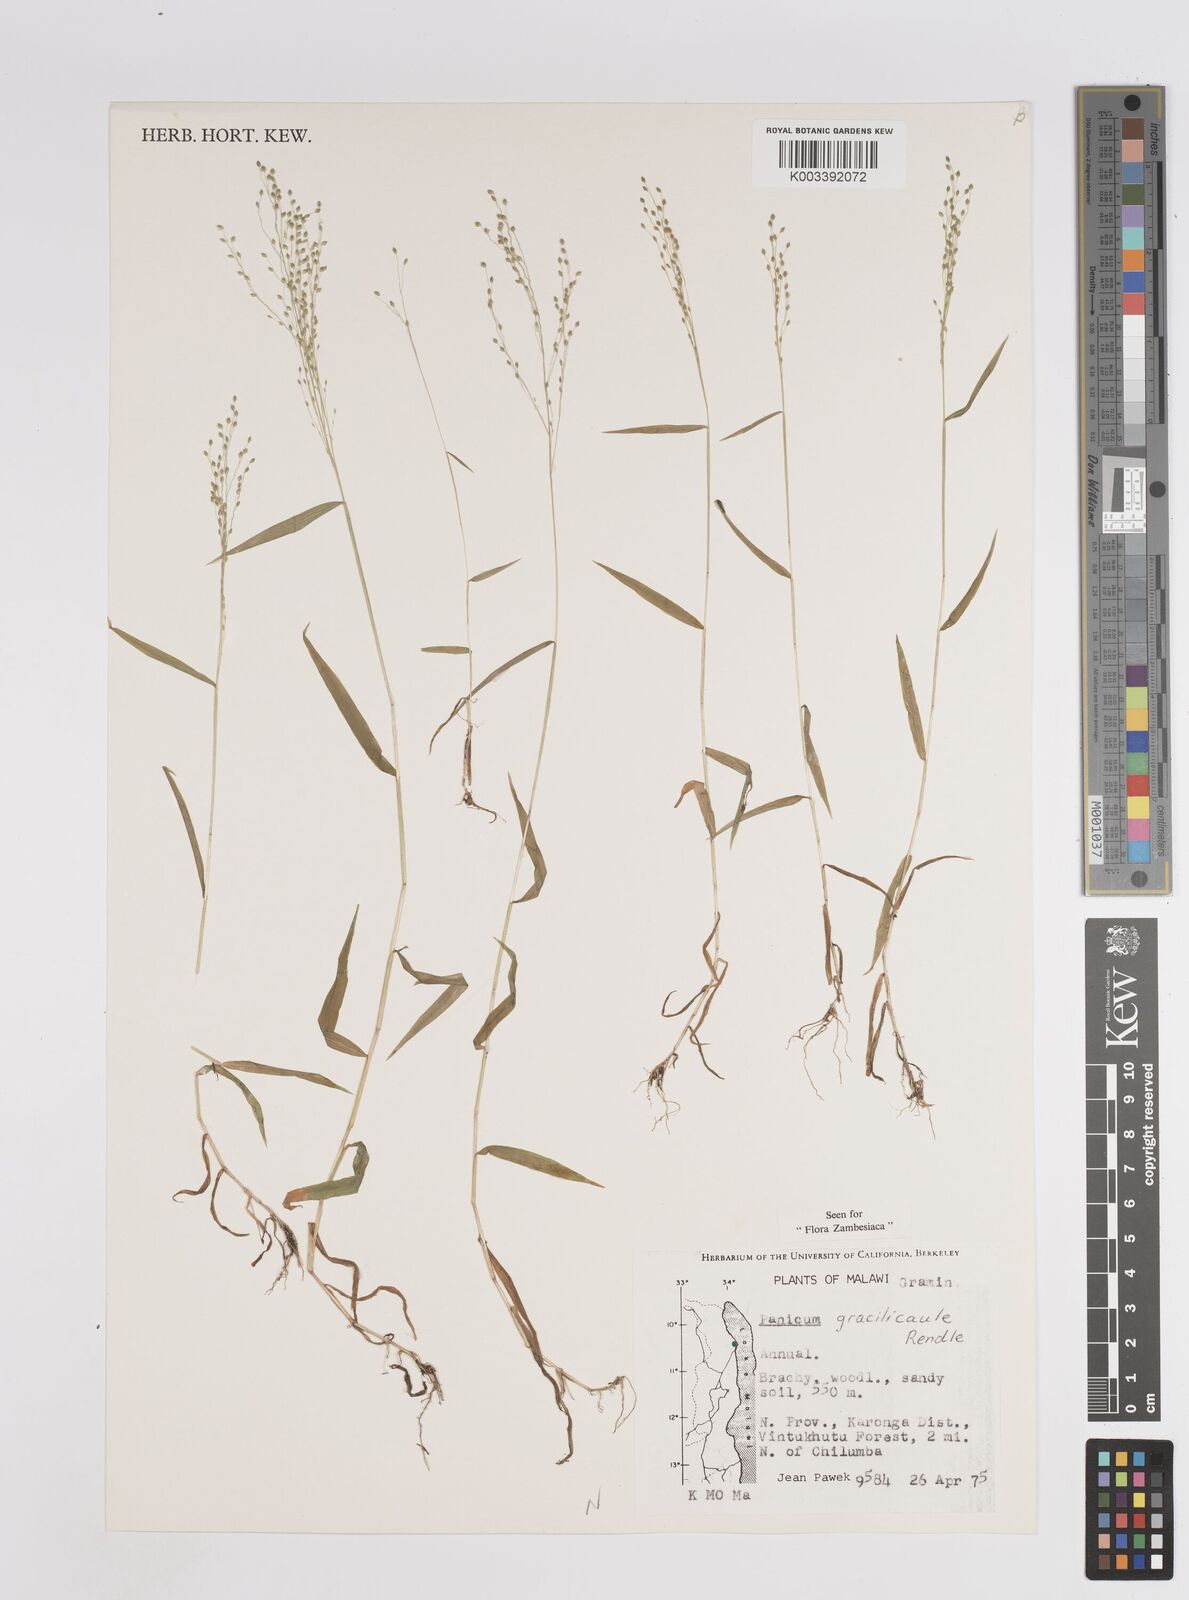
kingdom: Plantae
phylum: Tracheophyta
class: Liliopsida
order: Poales
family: Poaceae
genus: Trichanthecium
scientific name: Trichanthecium gracilicaule
